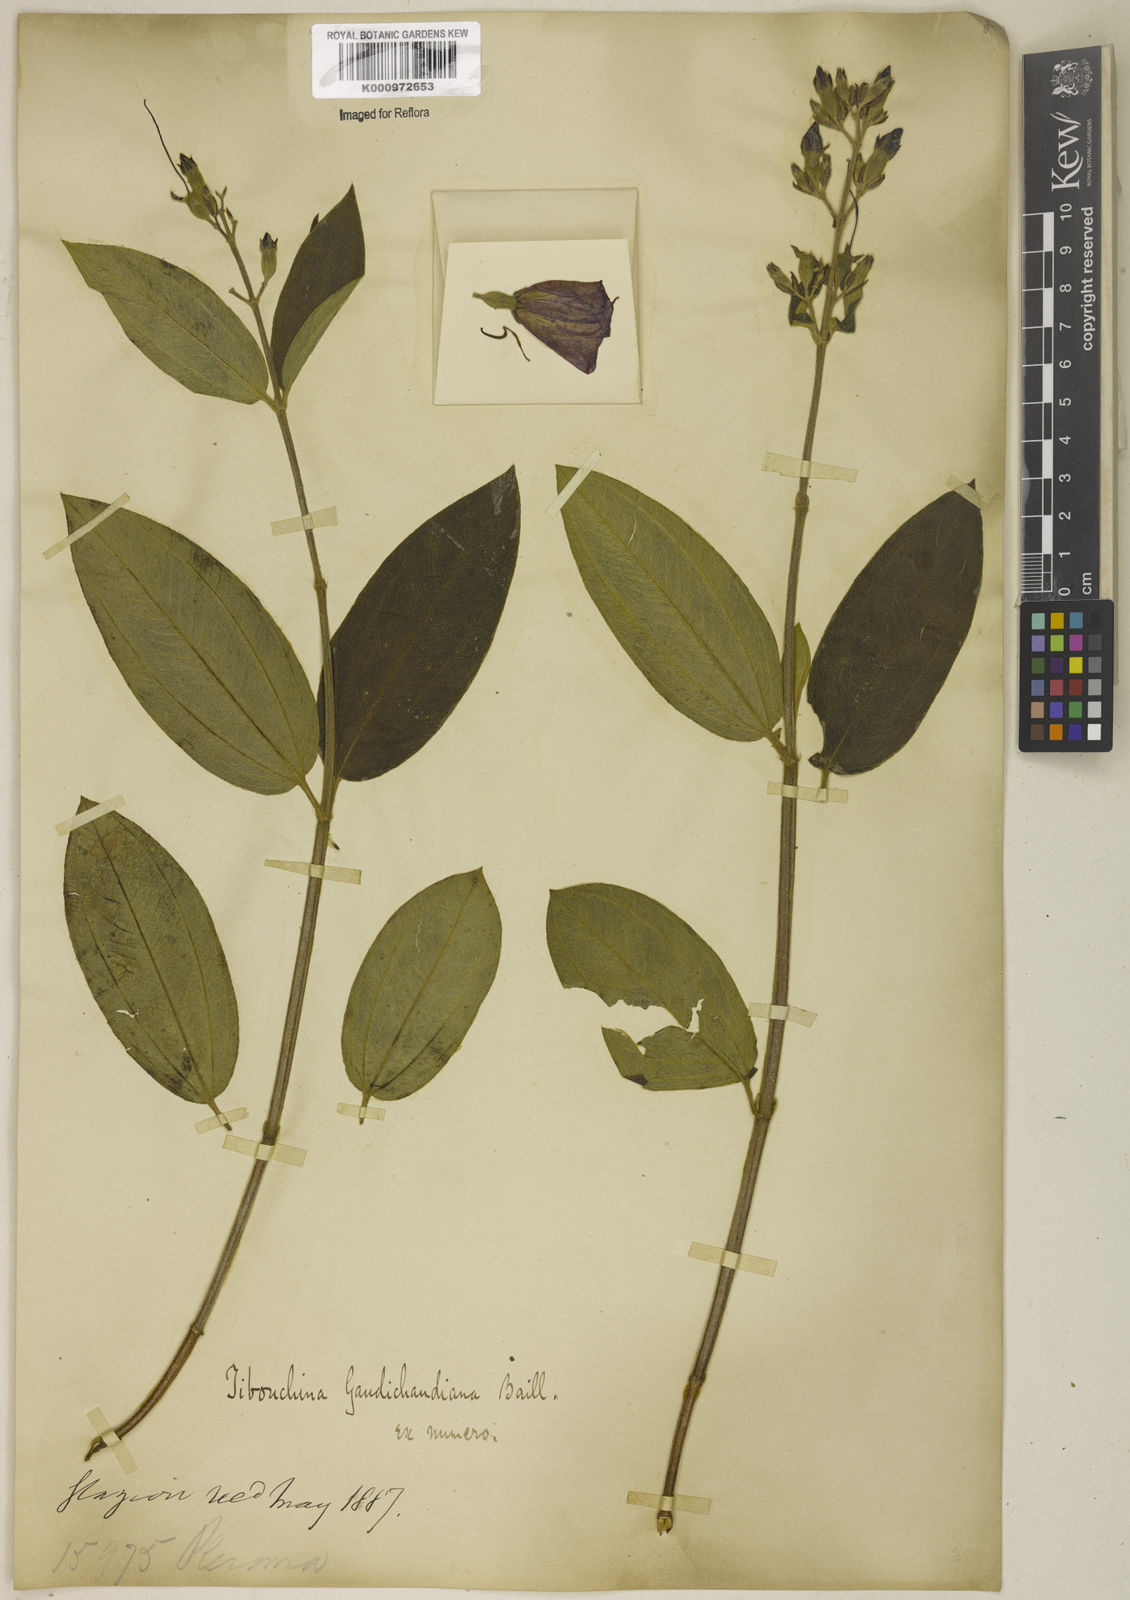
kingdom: Plantae
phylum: Tracheophyta
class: Magnoliopsida
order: Myrtales
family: Melastomataceae
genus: Pleroma
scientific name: Pleroma gaudichaudianum
